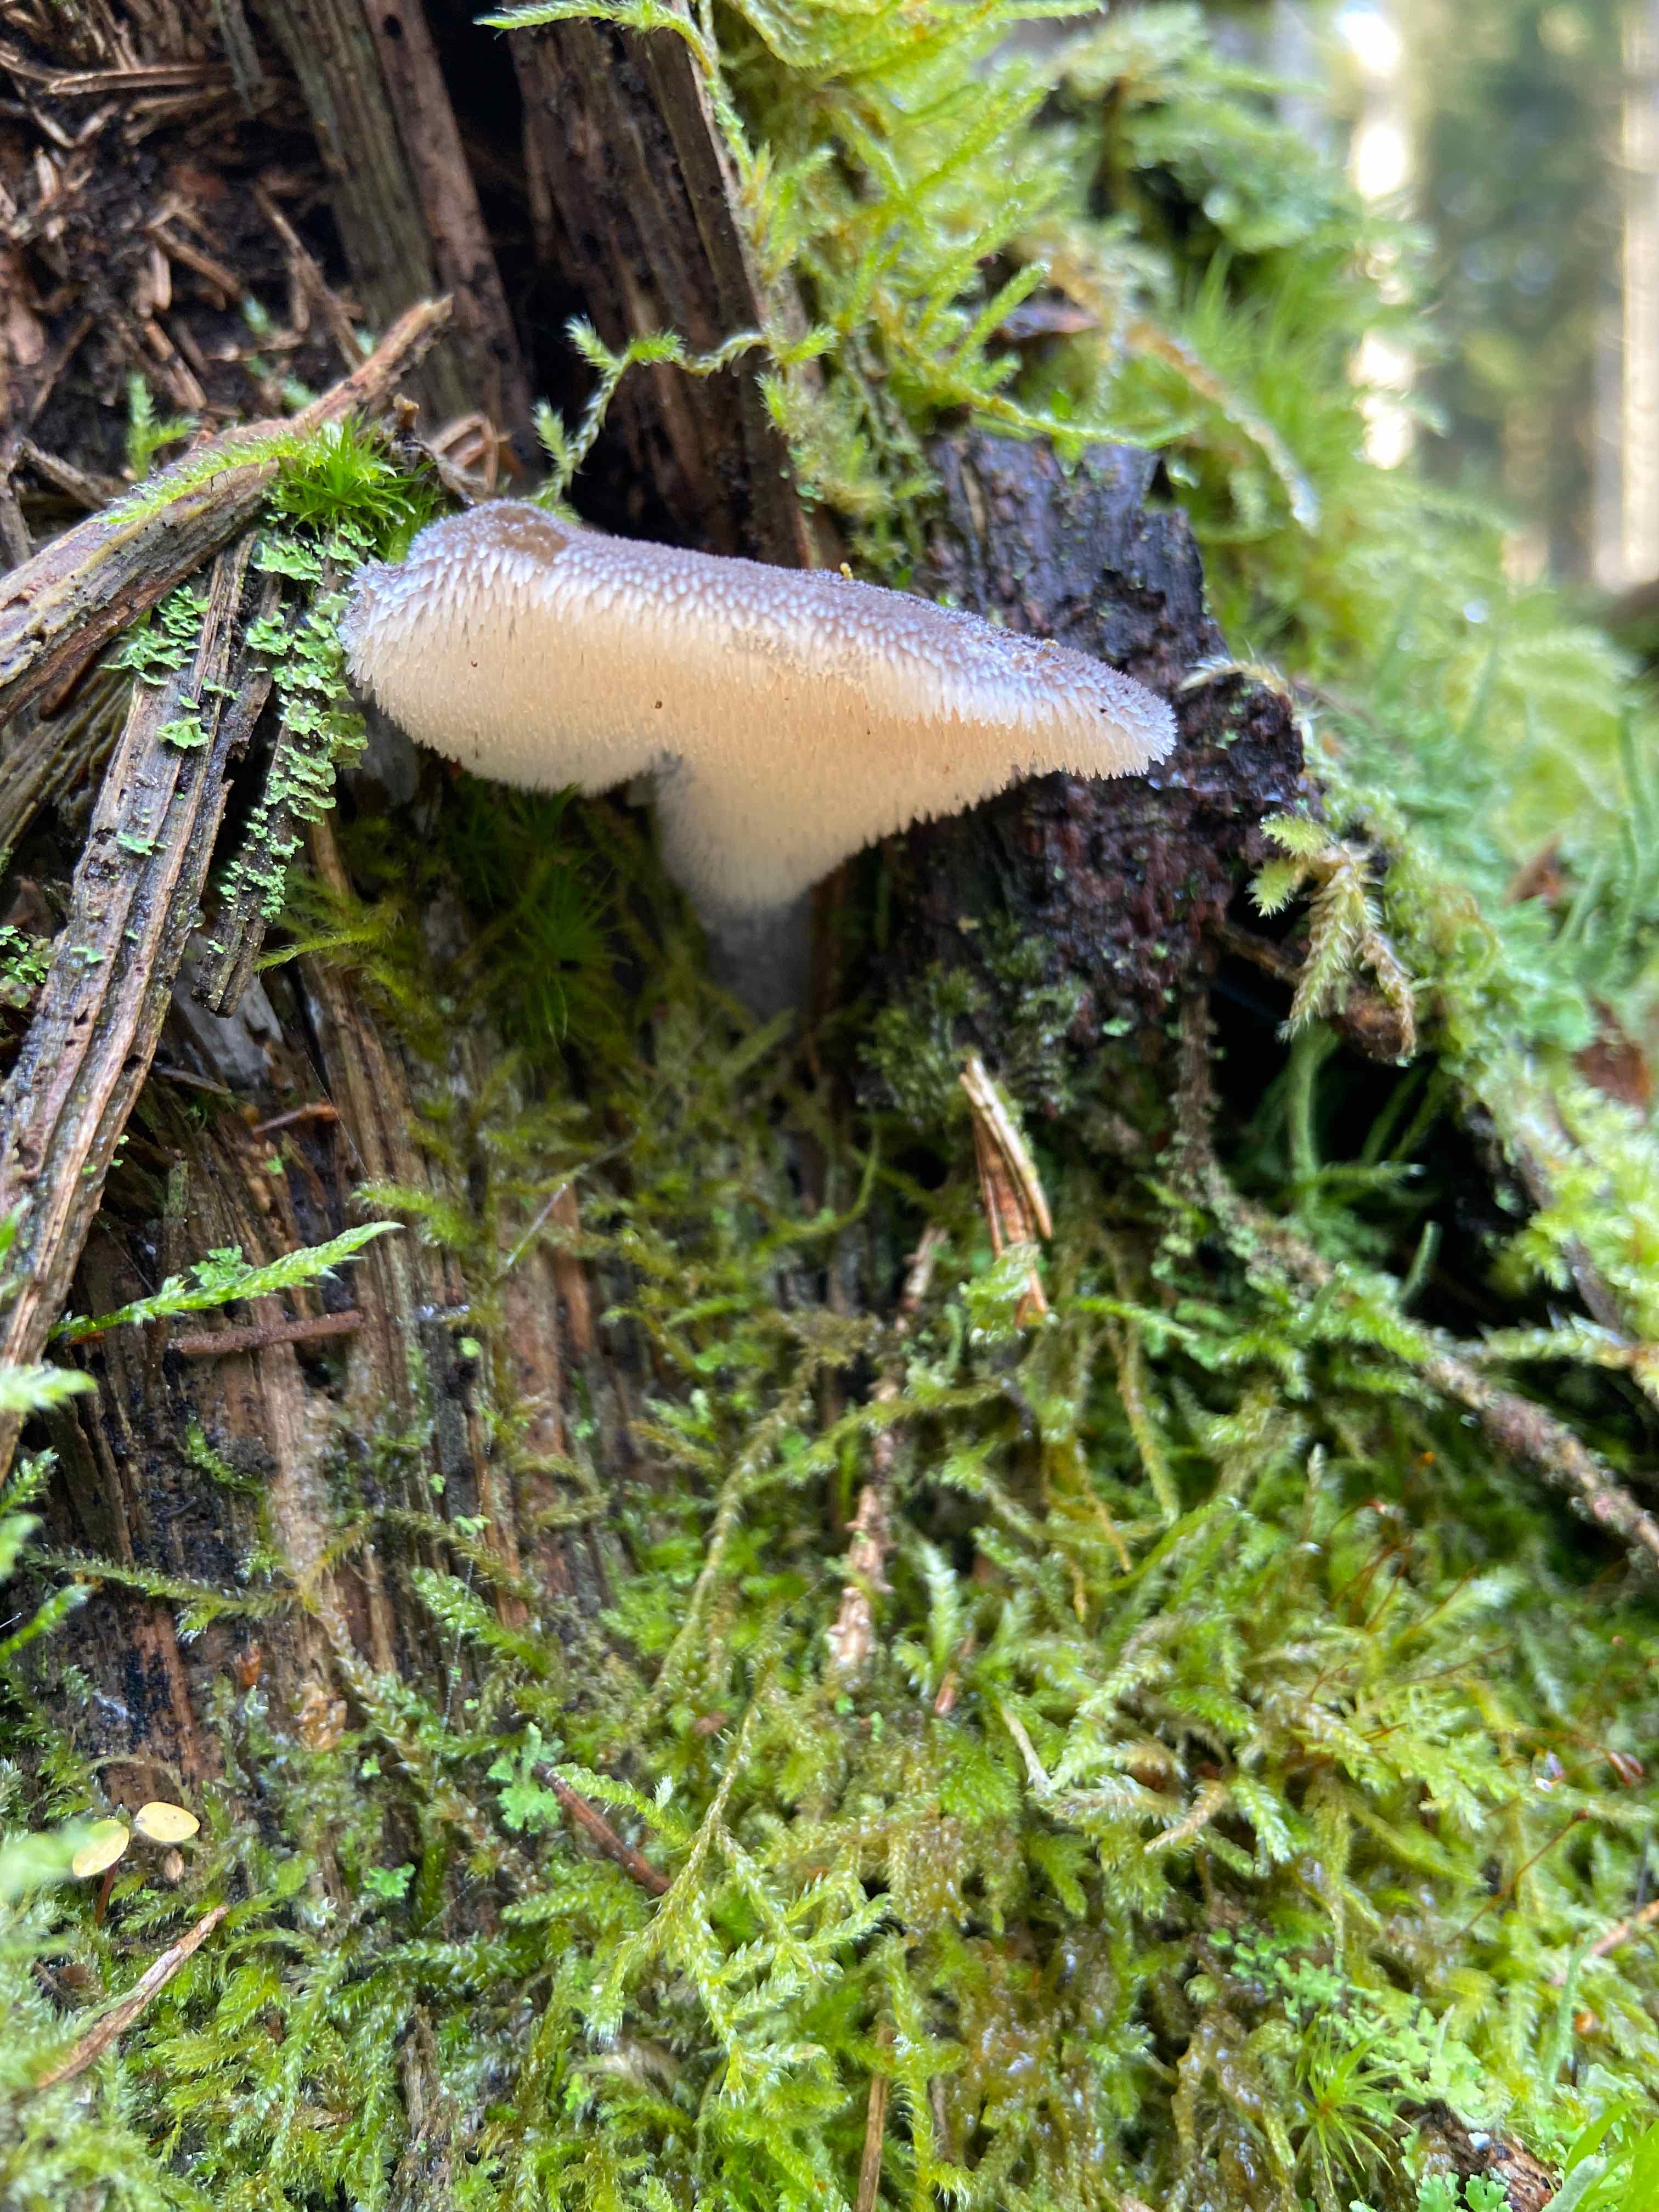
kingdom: Fungi
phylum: Basidiomycota
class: Agaricomycetes
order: Auriculariales
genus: Pseudohydnum
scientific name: Pseudohydnum gelatinosum
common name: bævretand
